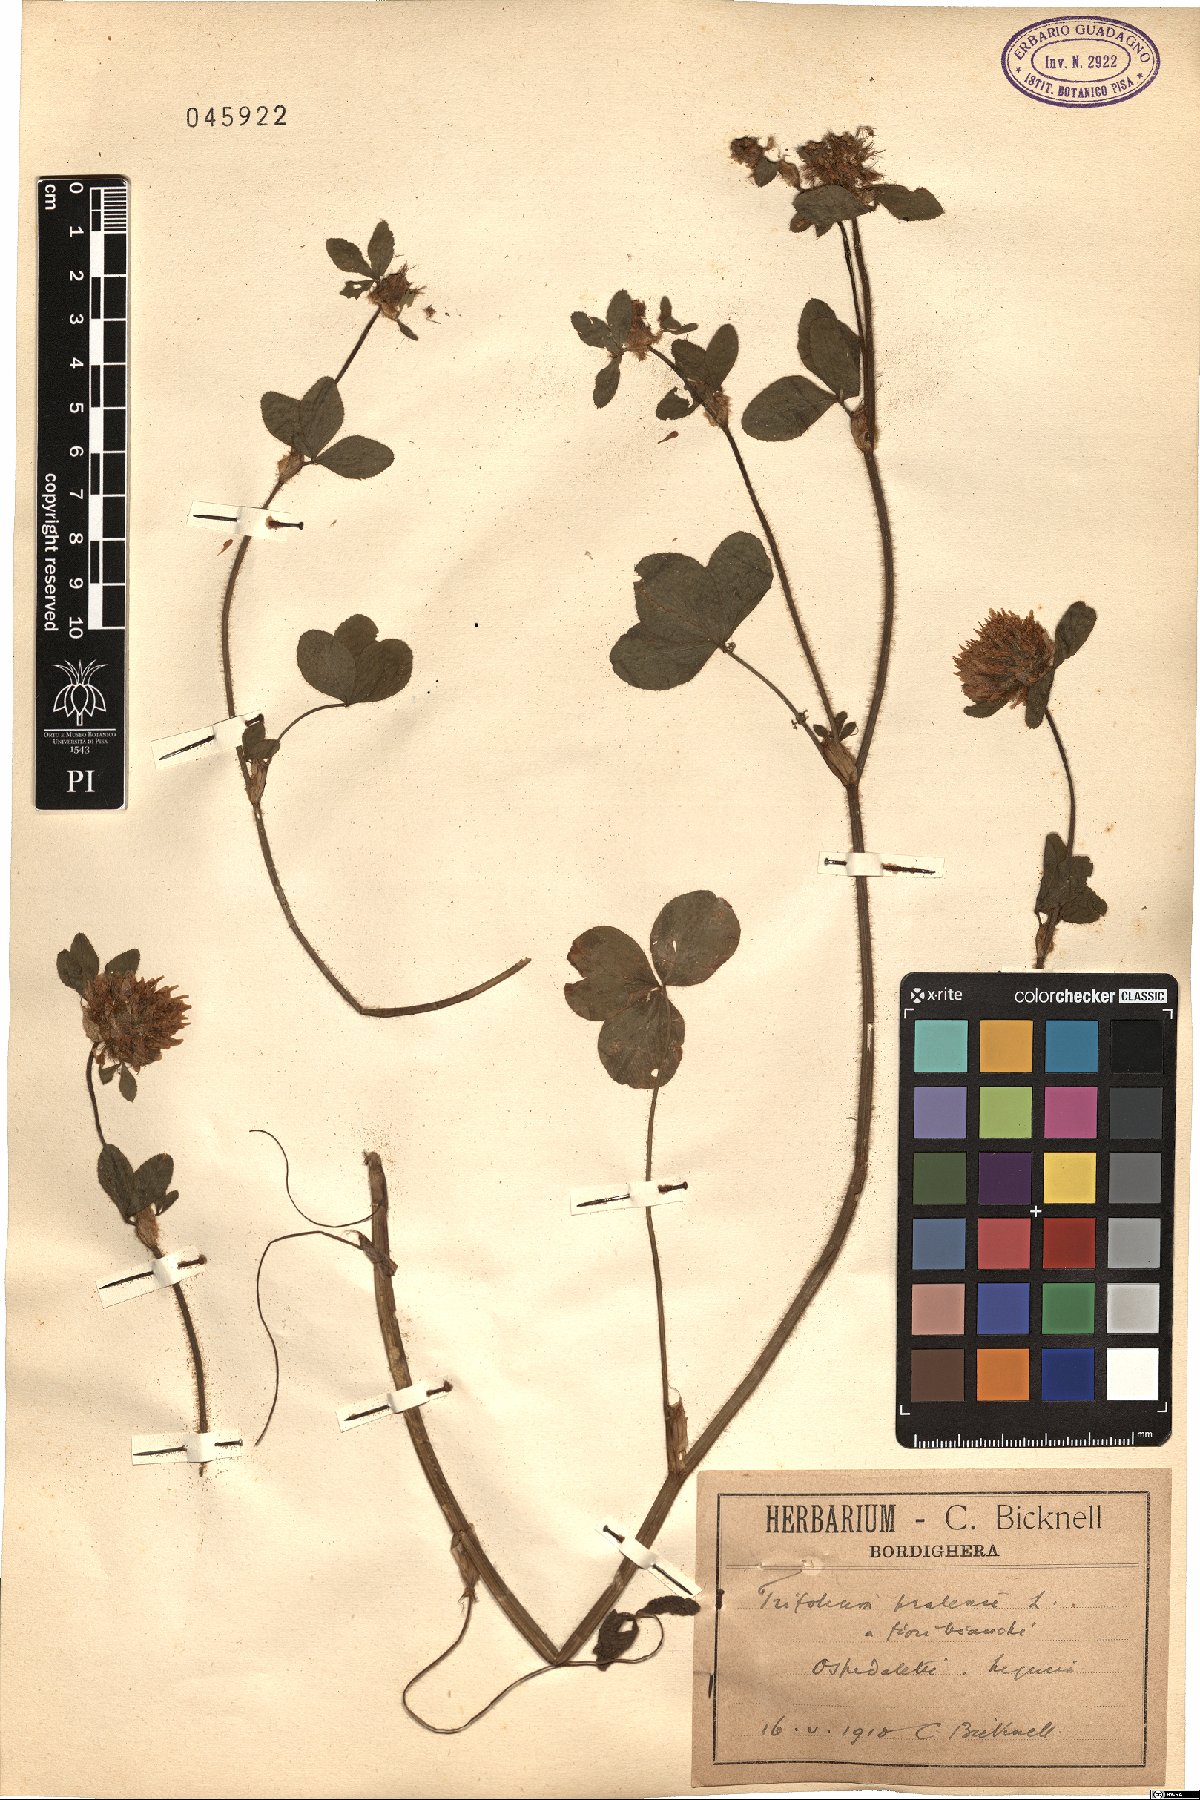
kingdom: Plantae
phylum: Tracheophyta
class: Magnoliopsida
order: Fabales
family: Fabaceae
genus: Trifolium
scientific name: Trifolium pratense
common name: Red clover
